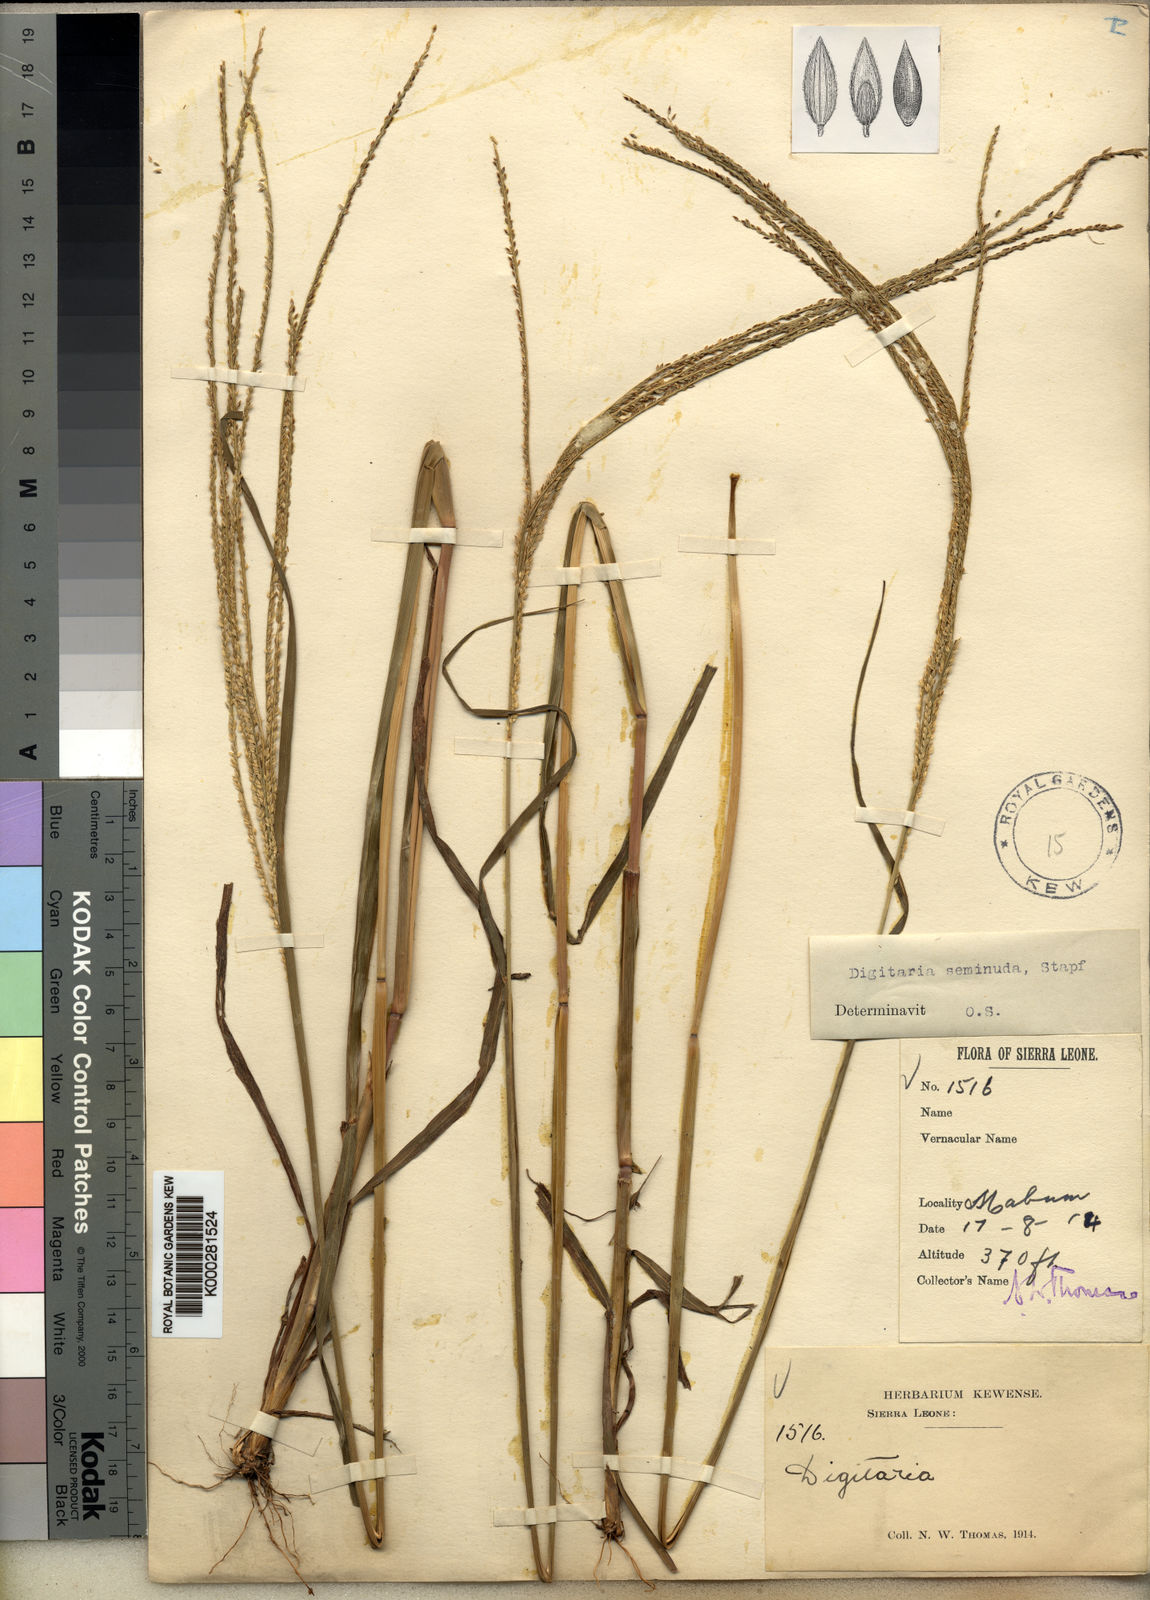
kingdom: Plantae
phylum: Tracheophyta
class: Liliopsida
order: Poales
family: Poaceae
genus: Digitaria
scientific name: Digitaria atrofusca
